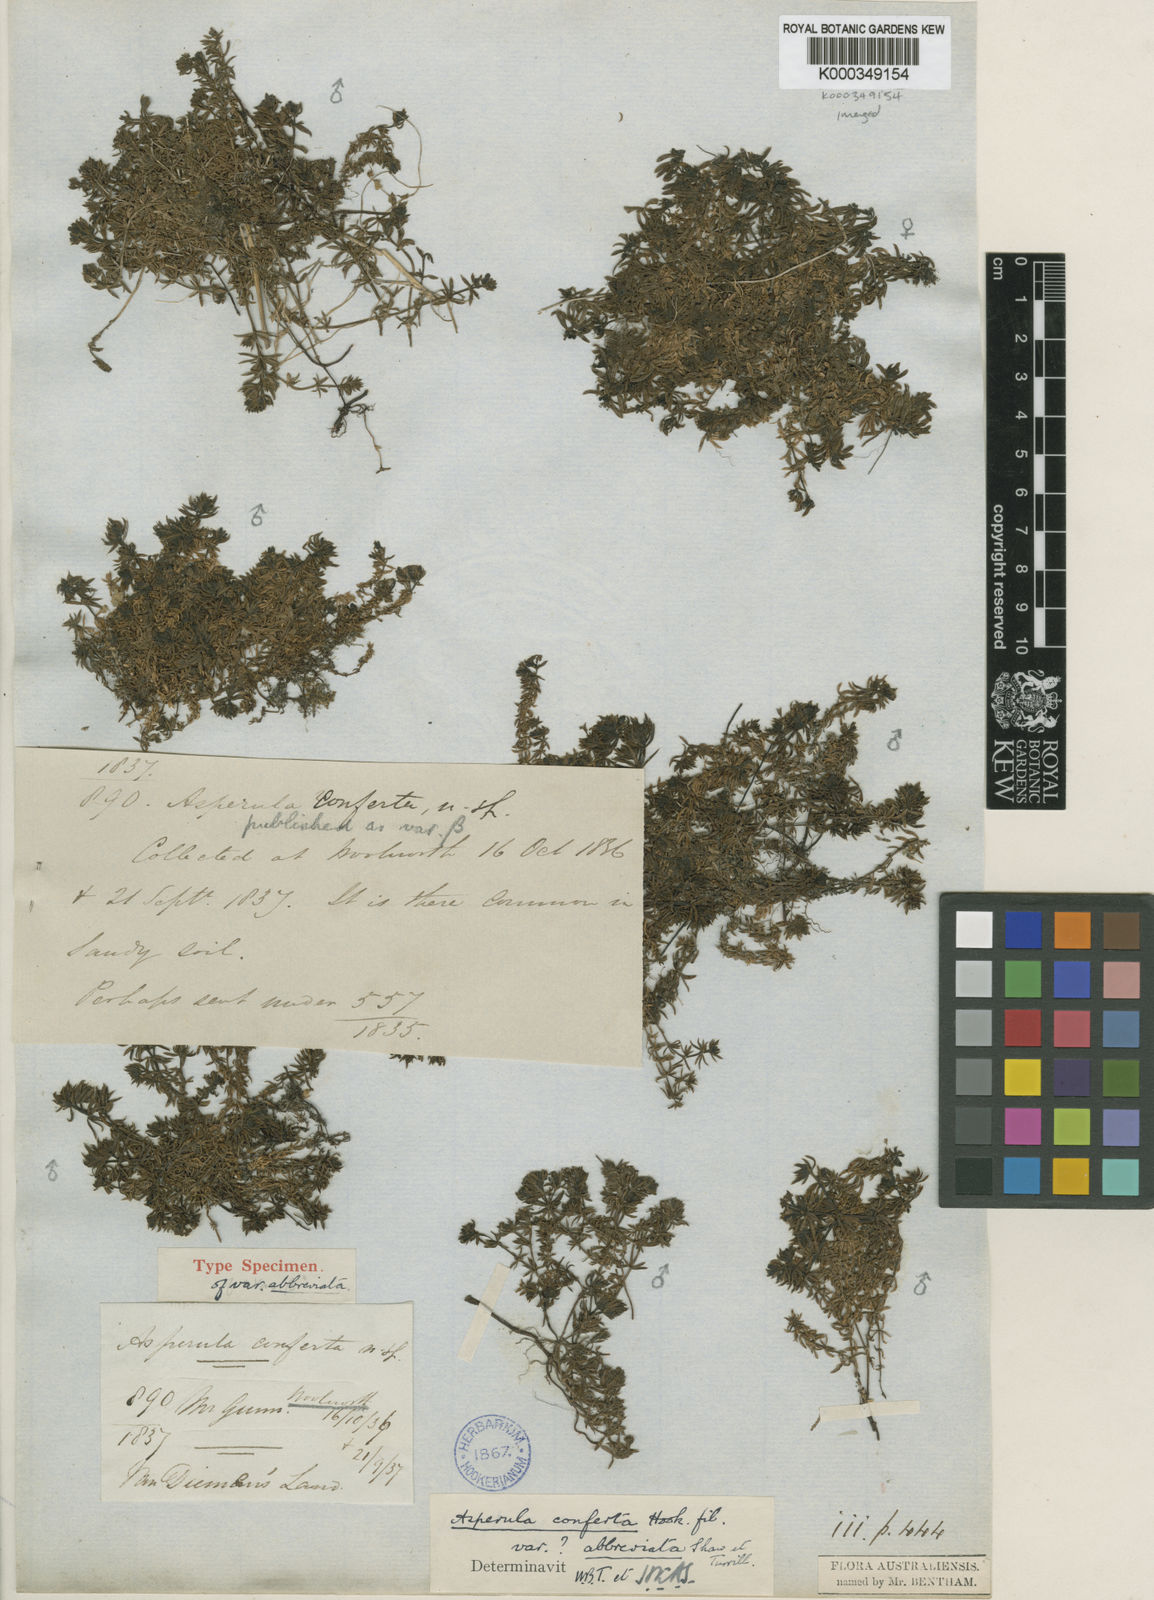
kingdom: Plantae
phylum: Tracheophyta
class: Magnoliopsida
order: Gentianales
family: Rubiaceae
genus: Asperula
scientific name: Asperula conferta
